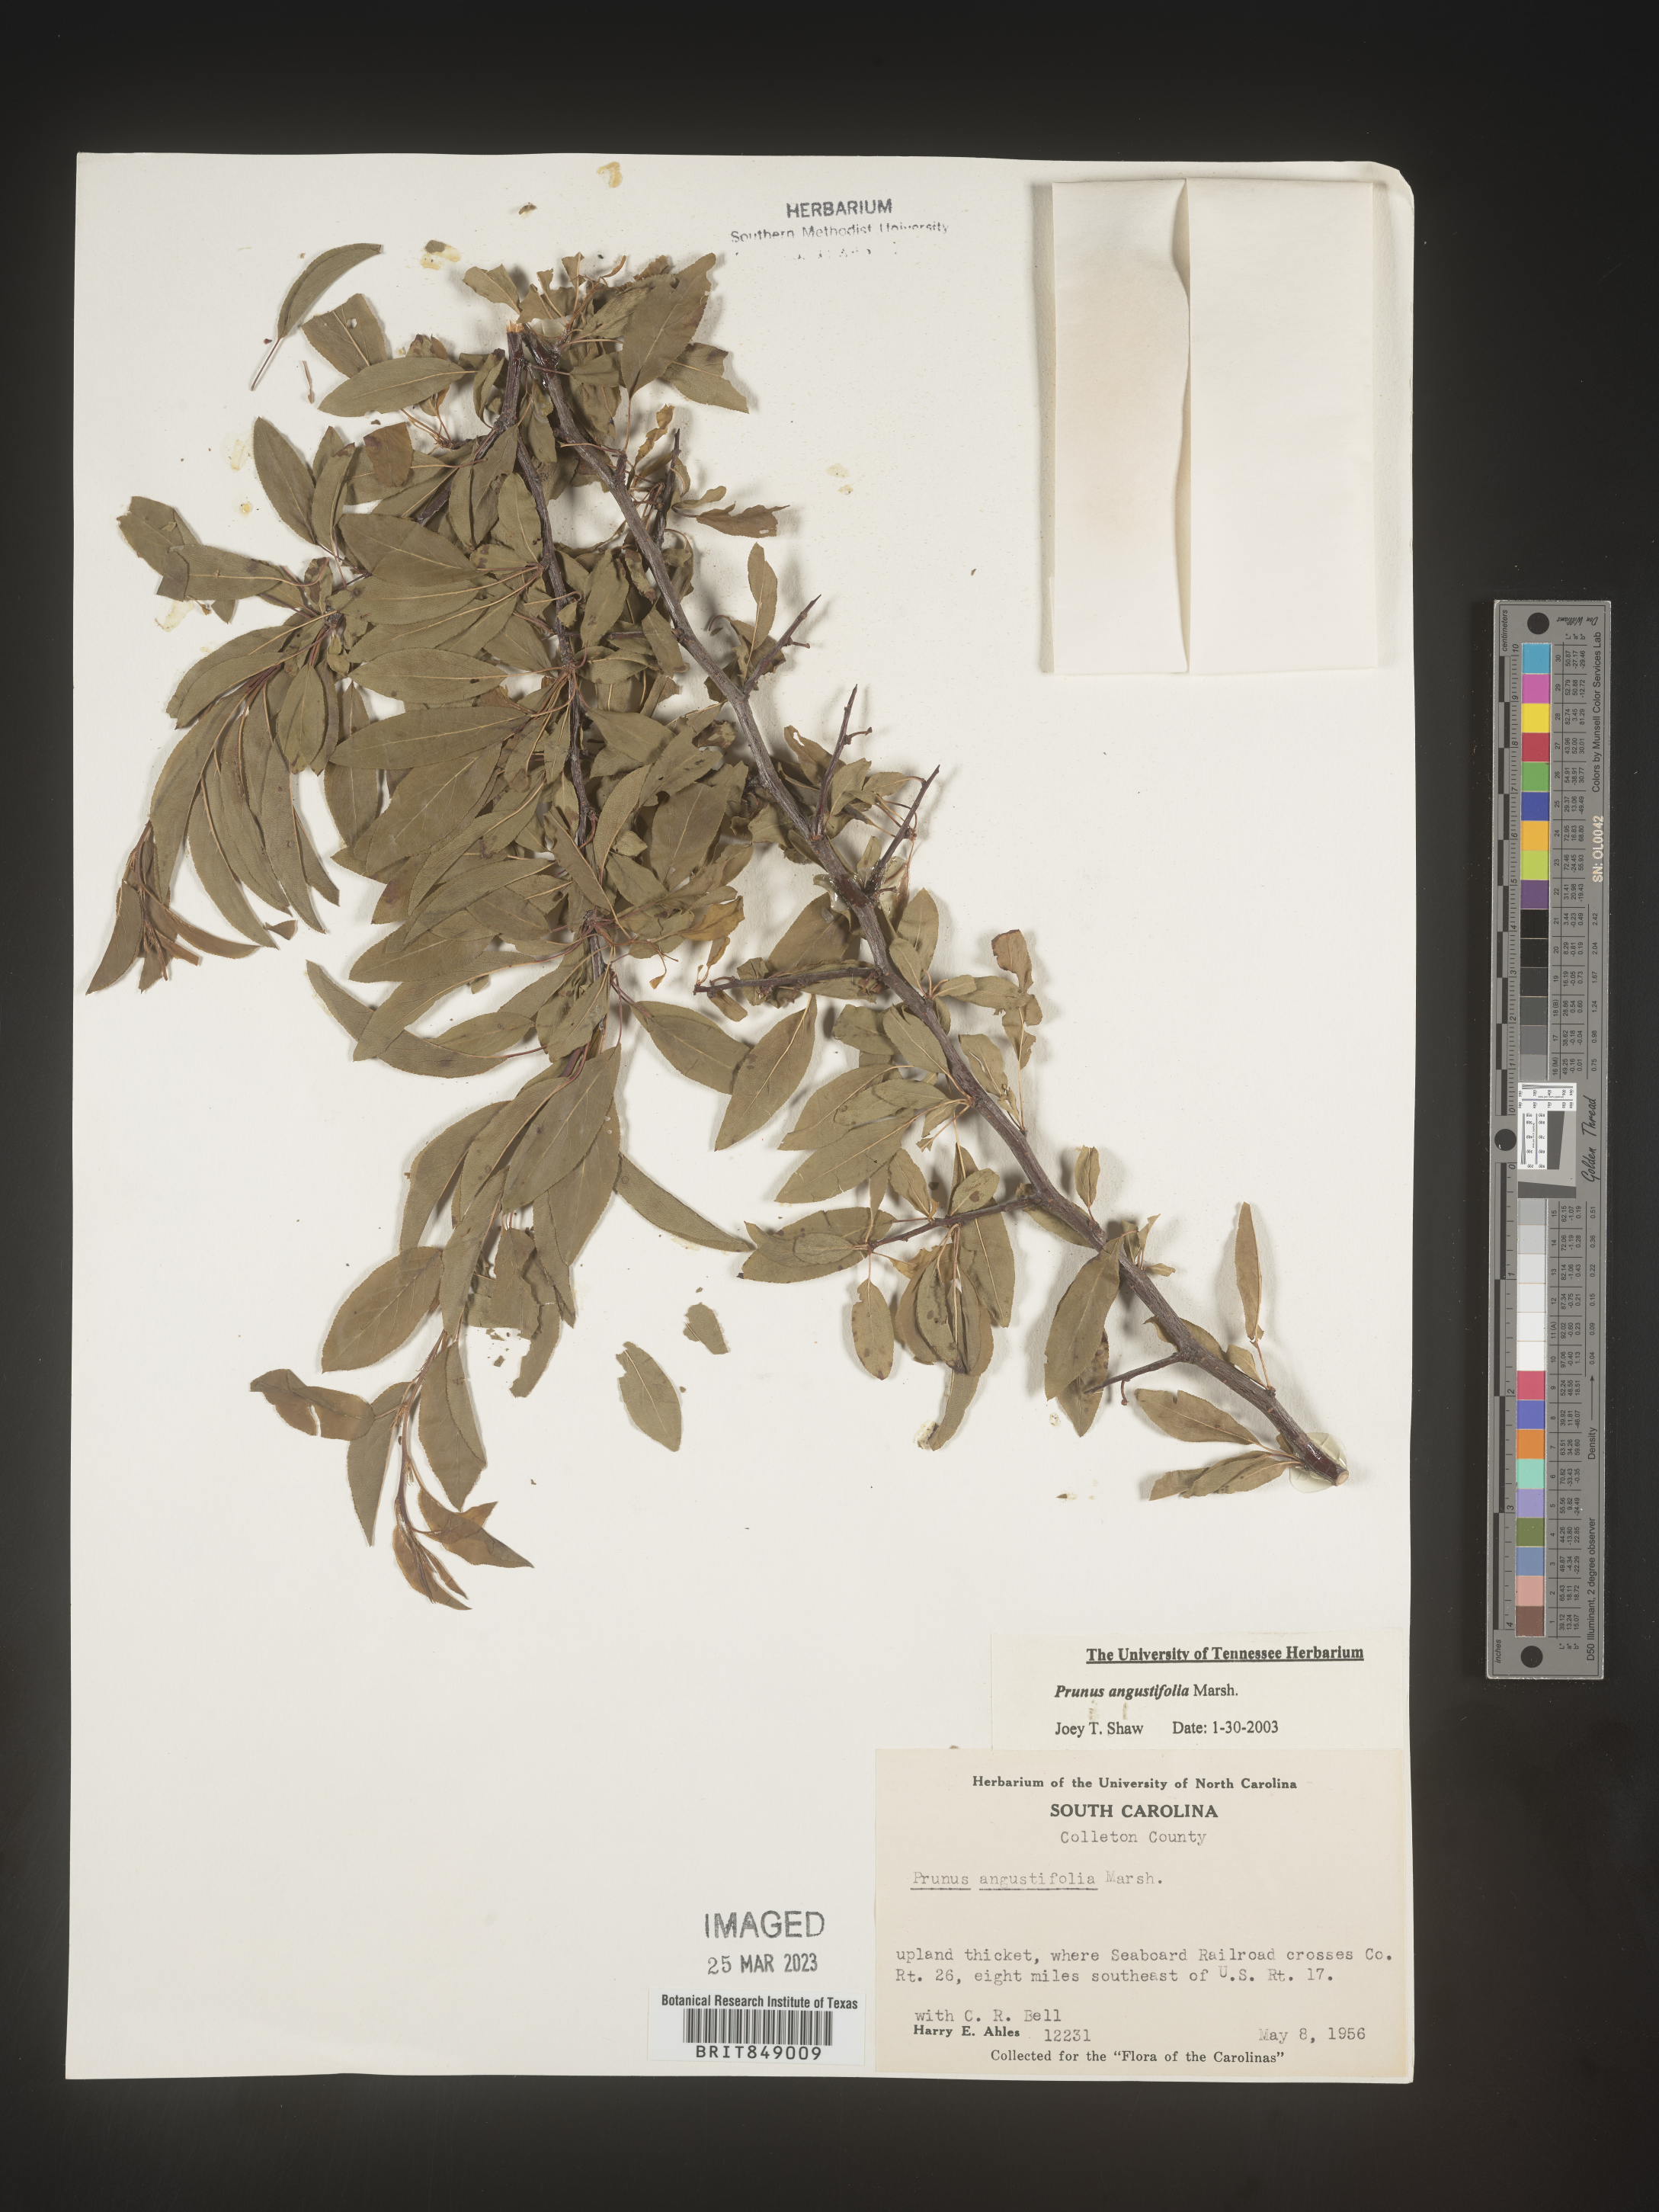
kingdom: Plantae
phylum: Tracheophyta
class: Magnoliopsida
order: Rosales
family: Rosaceae
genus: Prunus
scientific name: Prunus angustifolia
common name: Cherokee plum
